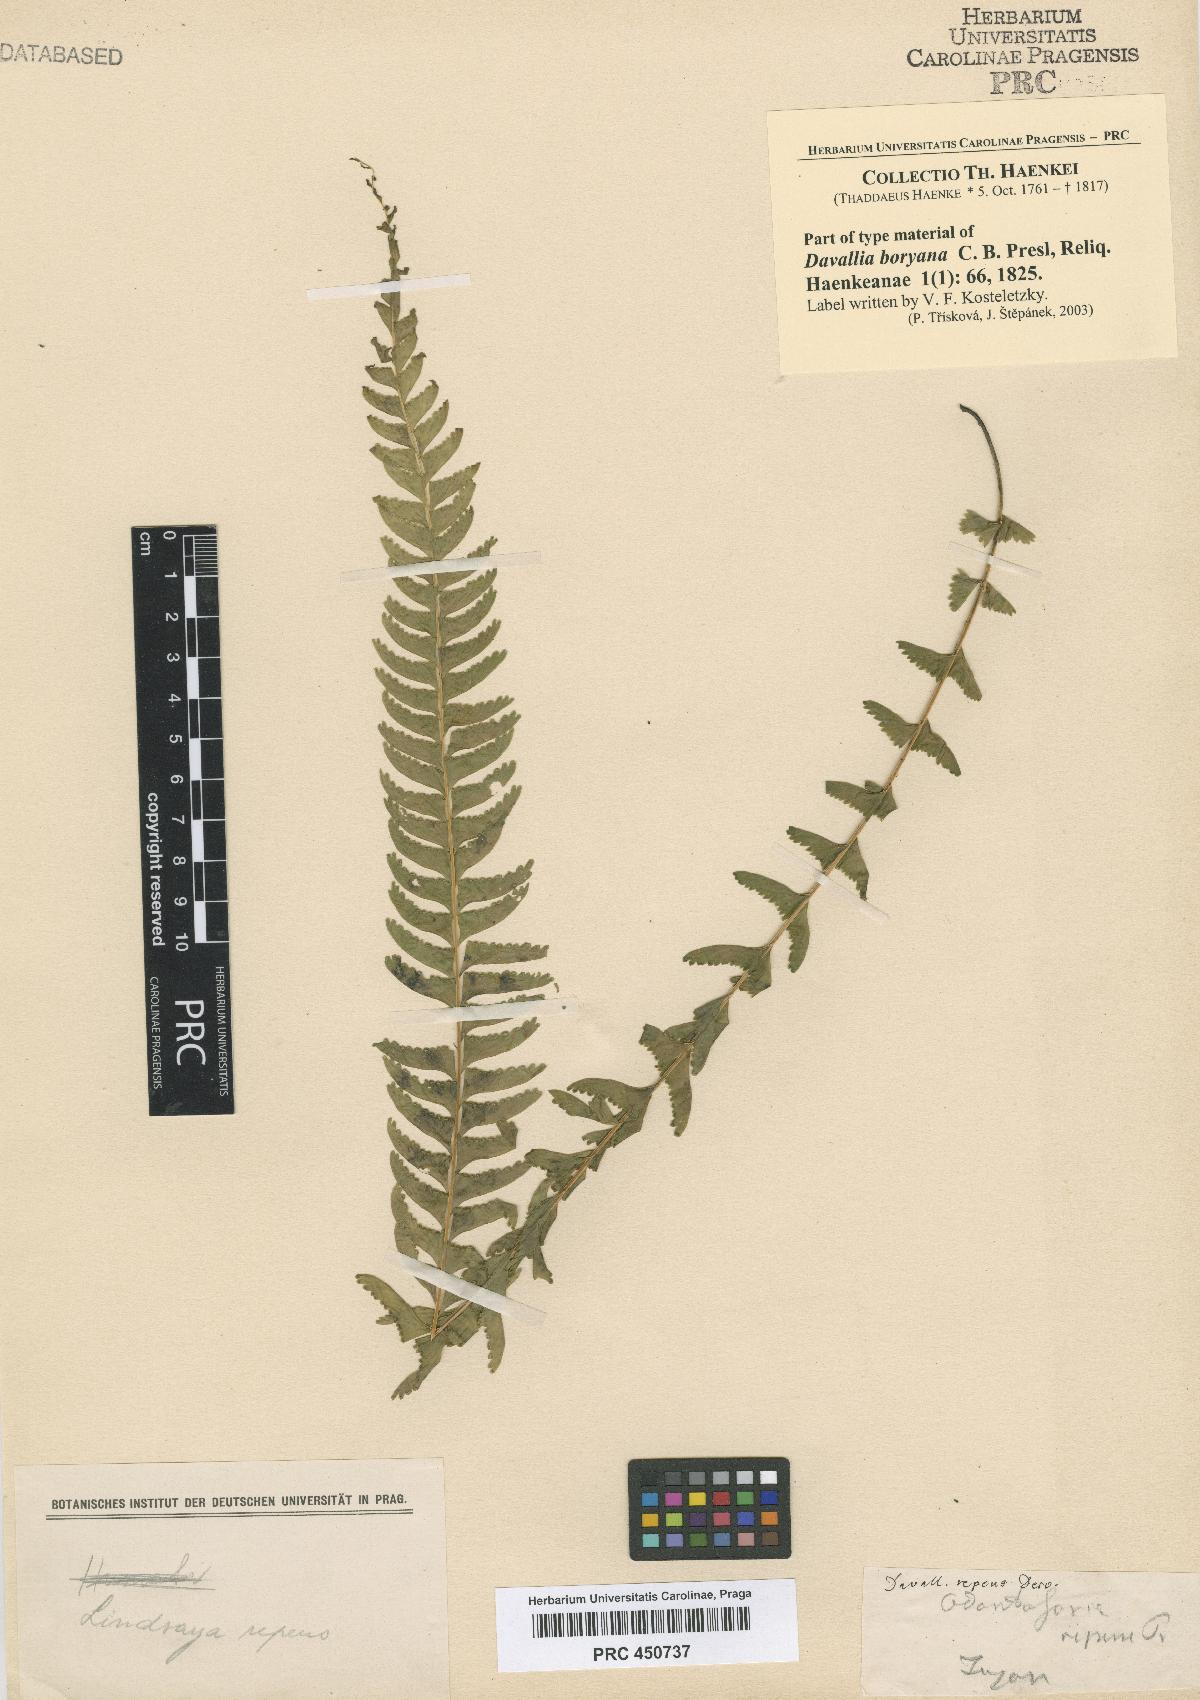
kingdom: Plantae
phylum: Tracheophyta
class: Polypodiopsida
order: Polypodiales
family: Lindsaeaceae
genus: Lindsaea
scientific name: Lindsaea repens
